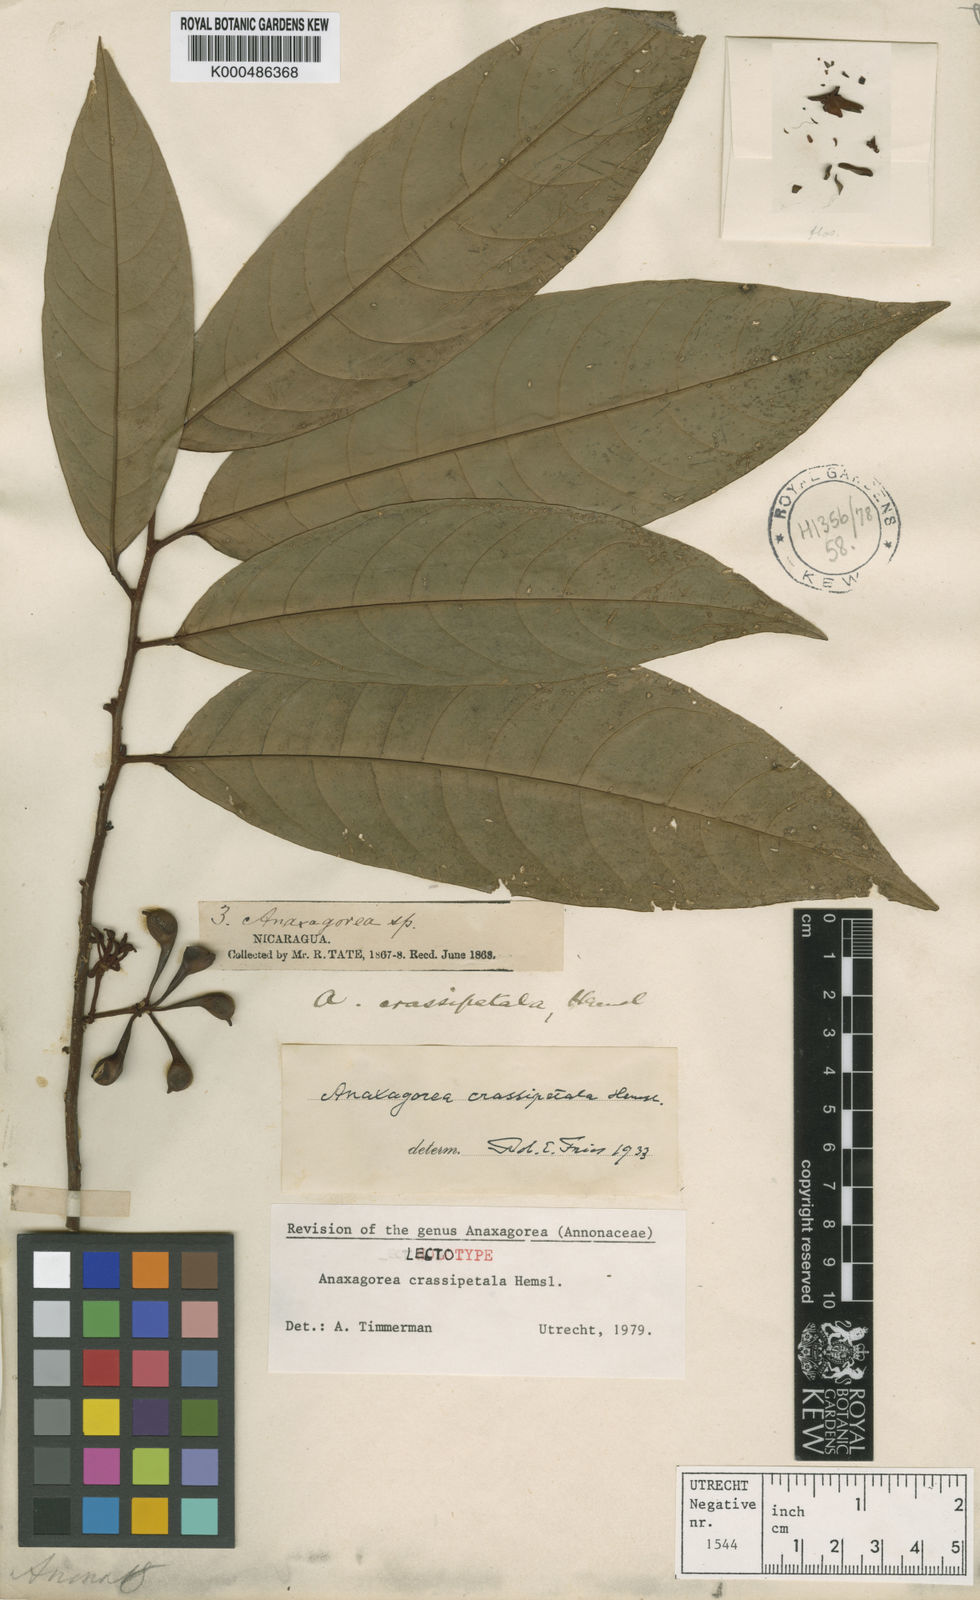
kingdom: Plantae
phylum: Tracheophyta
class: Magnoliopsida
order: Magnoliales
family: Annonaceae
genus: Anaxagorea
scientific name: Anaxagorea crassipetala
